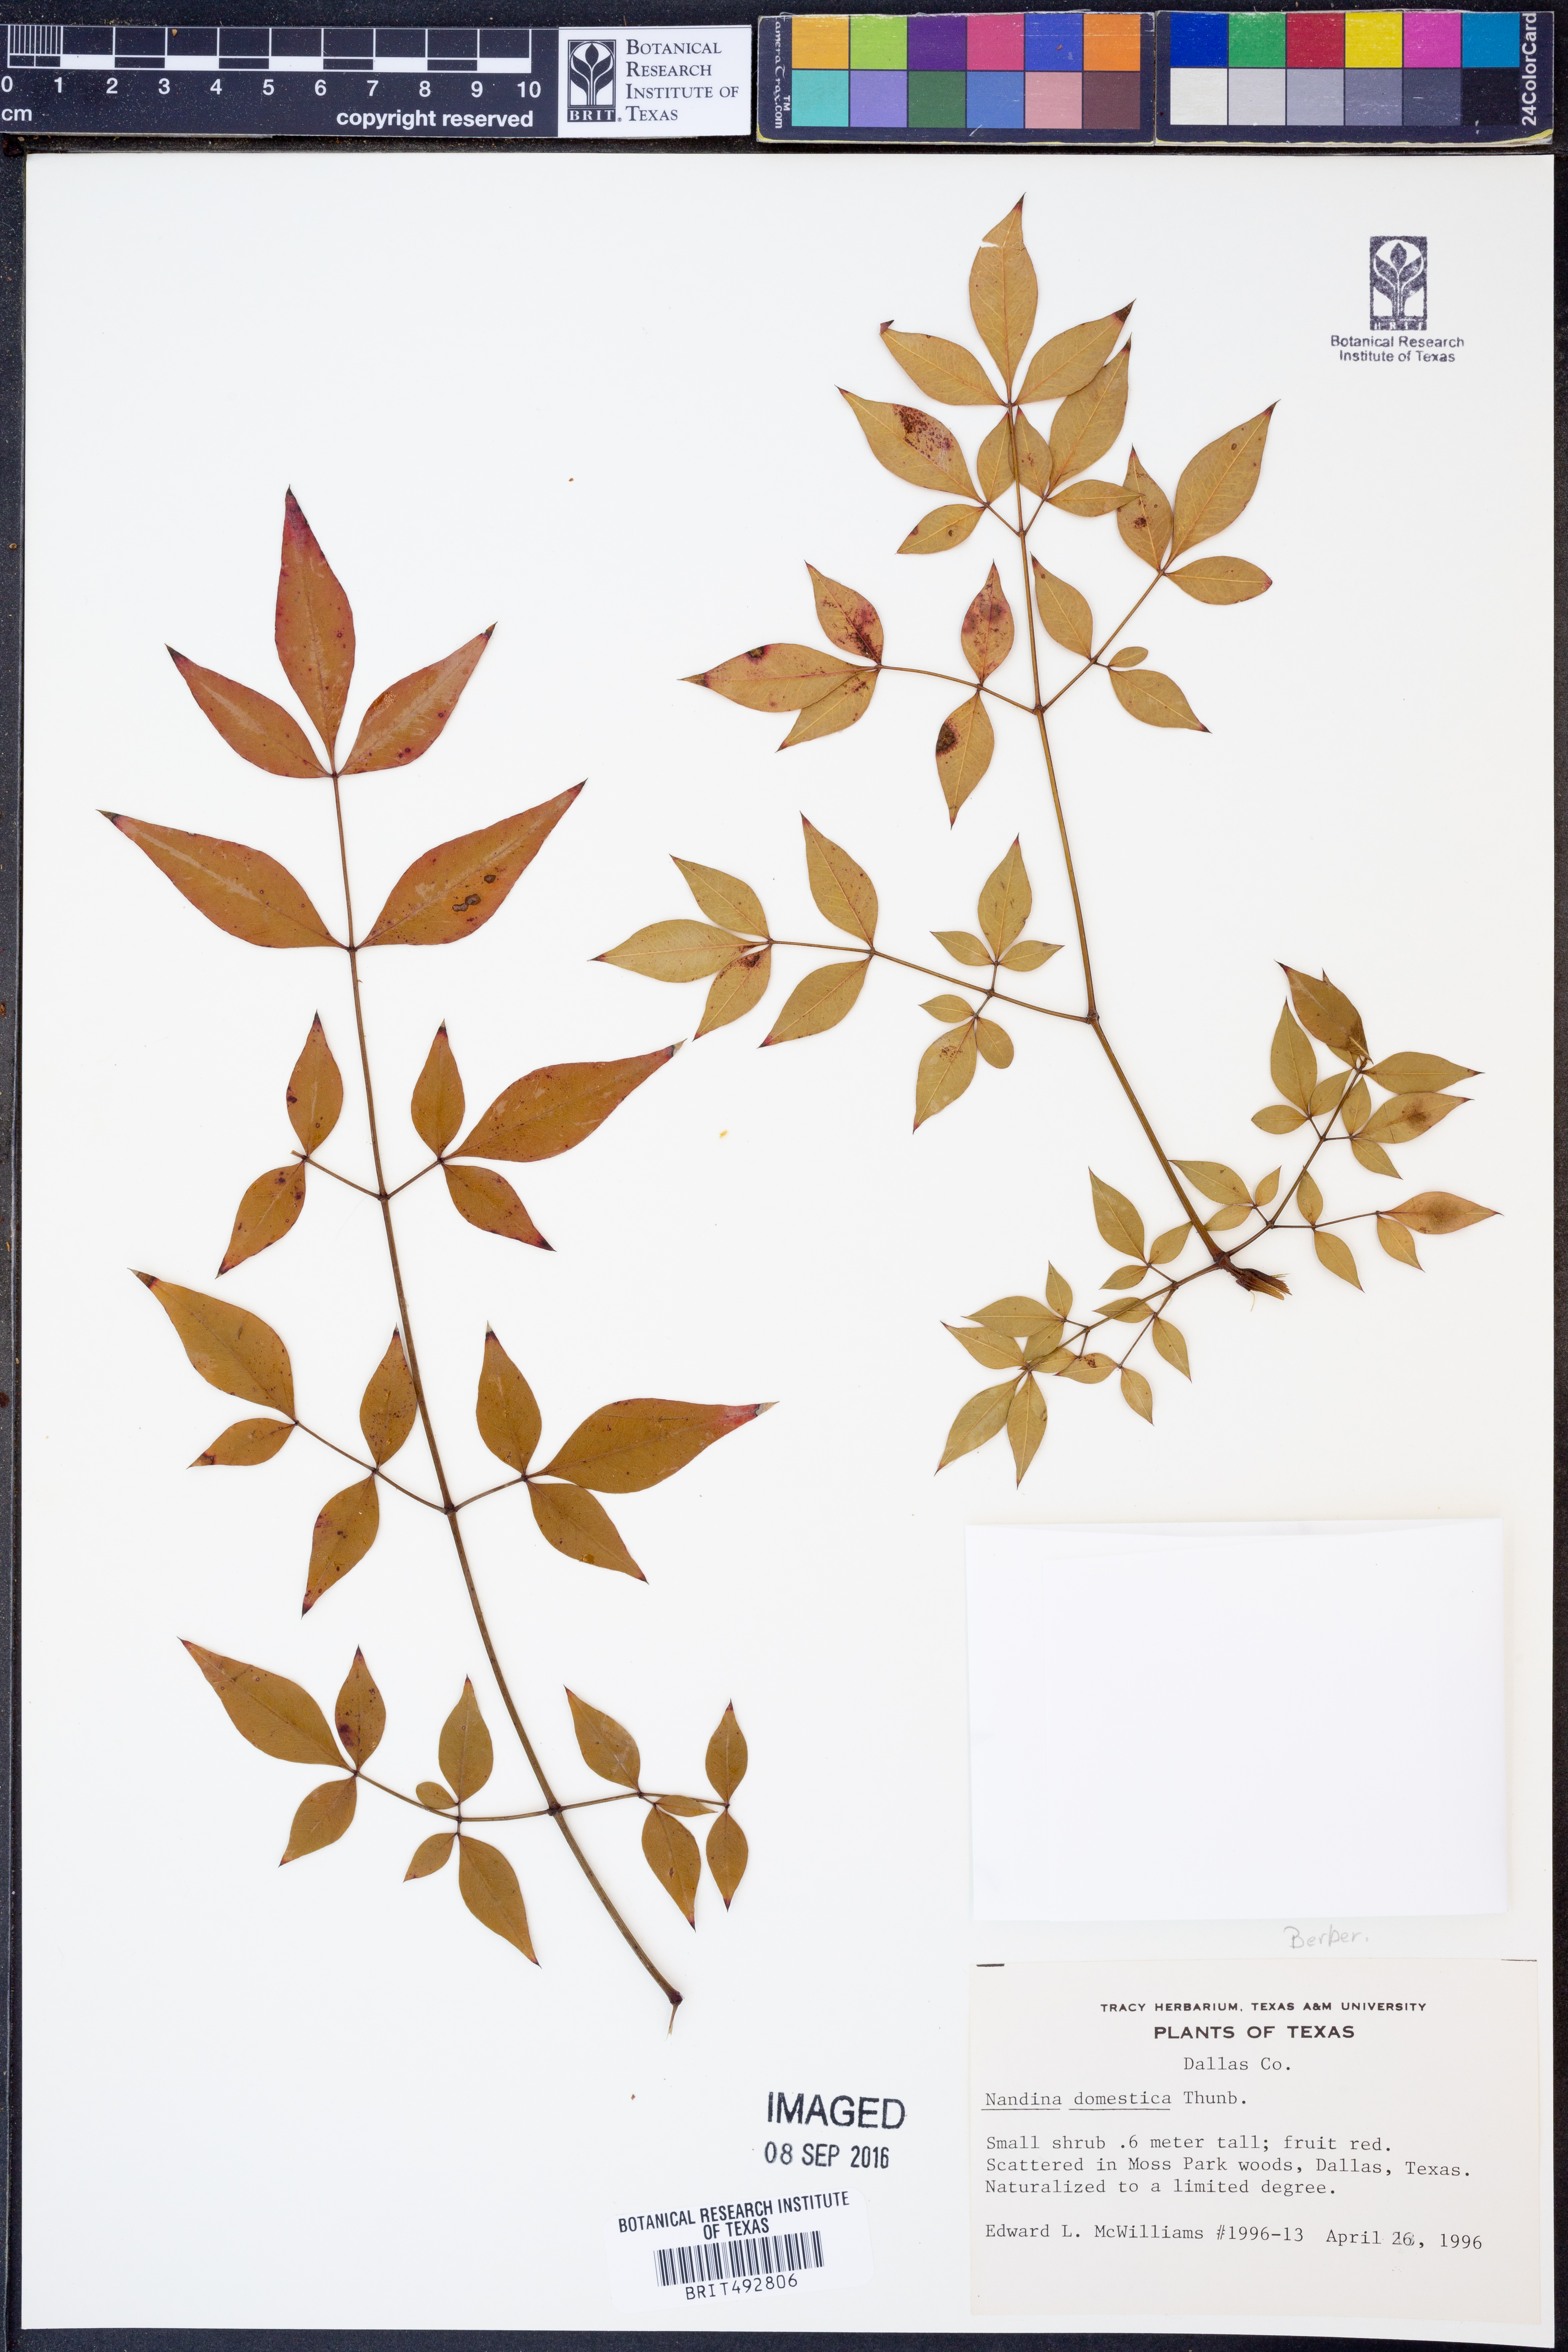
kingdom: Plantae
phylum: Tracheophyta
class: Magnoliopsida
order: Ranunculales
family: Berberidaceae
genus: Nandina
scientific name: Nandina domestica
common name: Sacred bamboo
